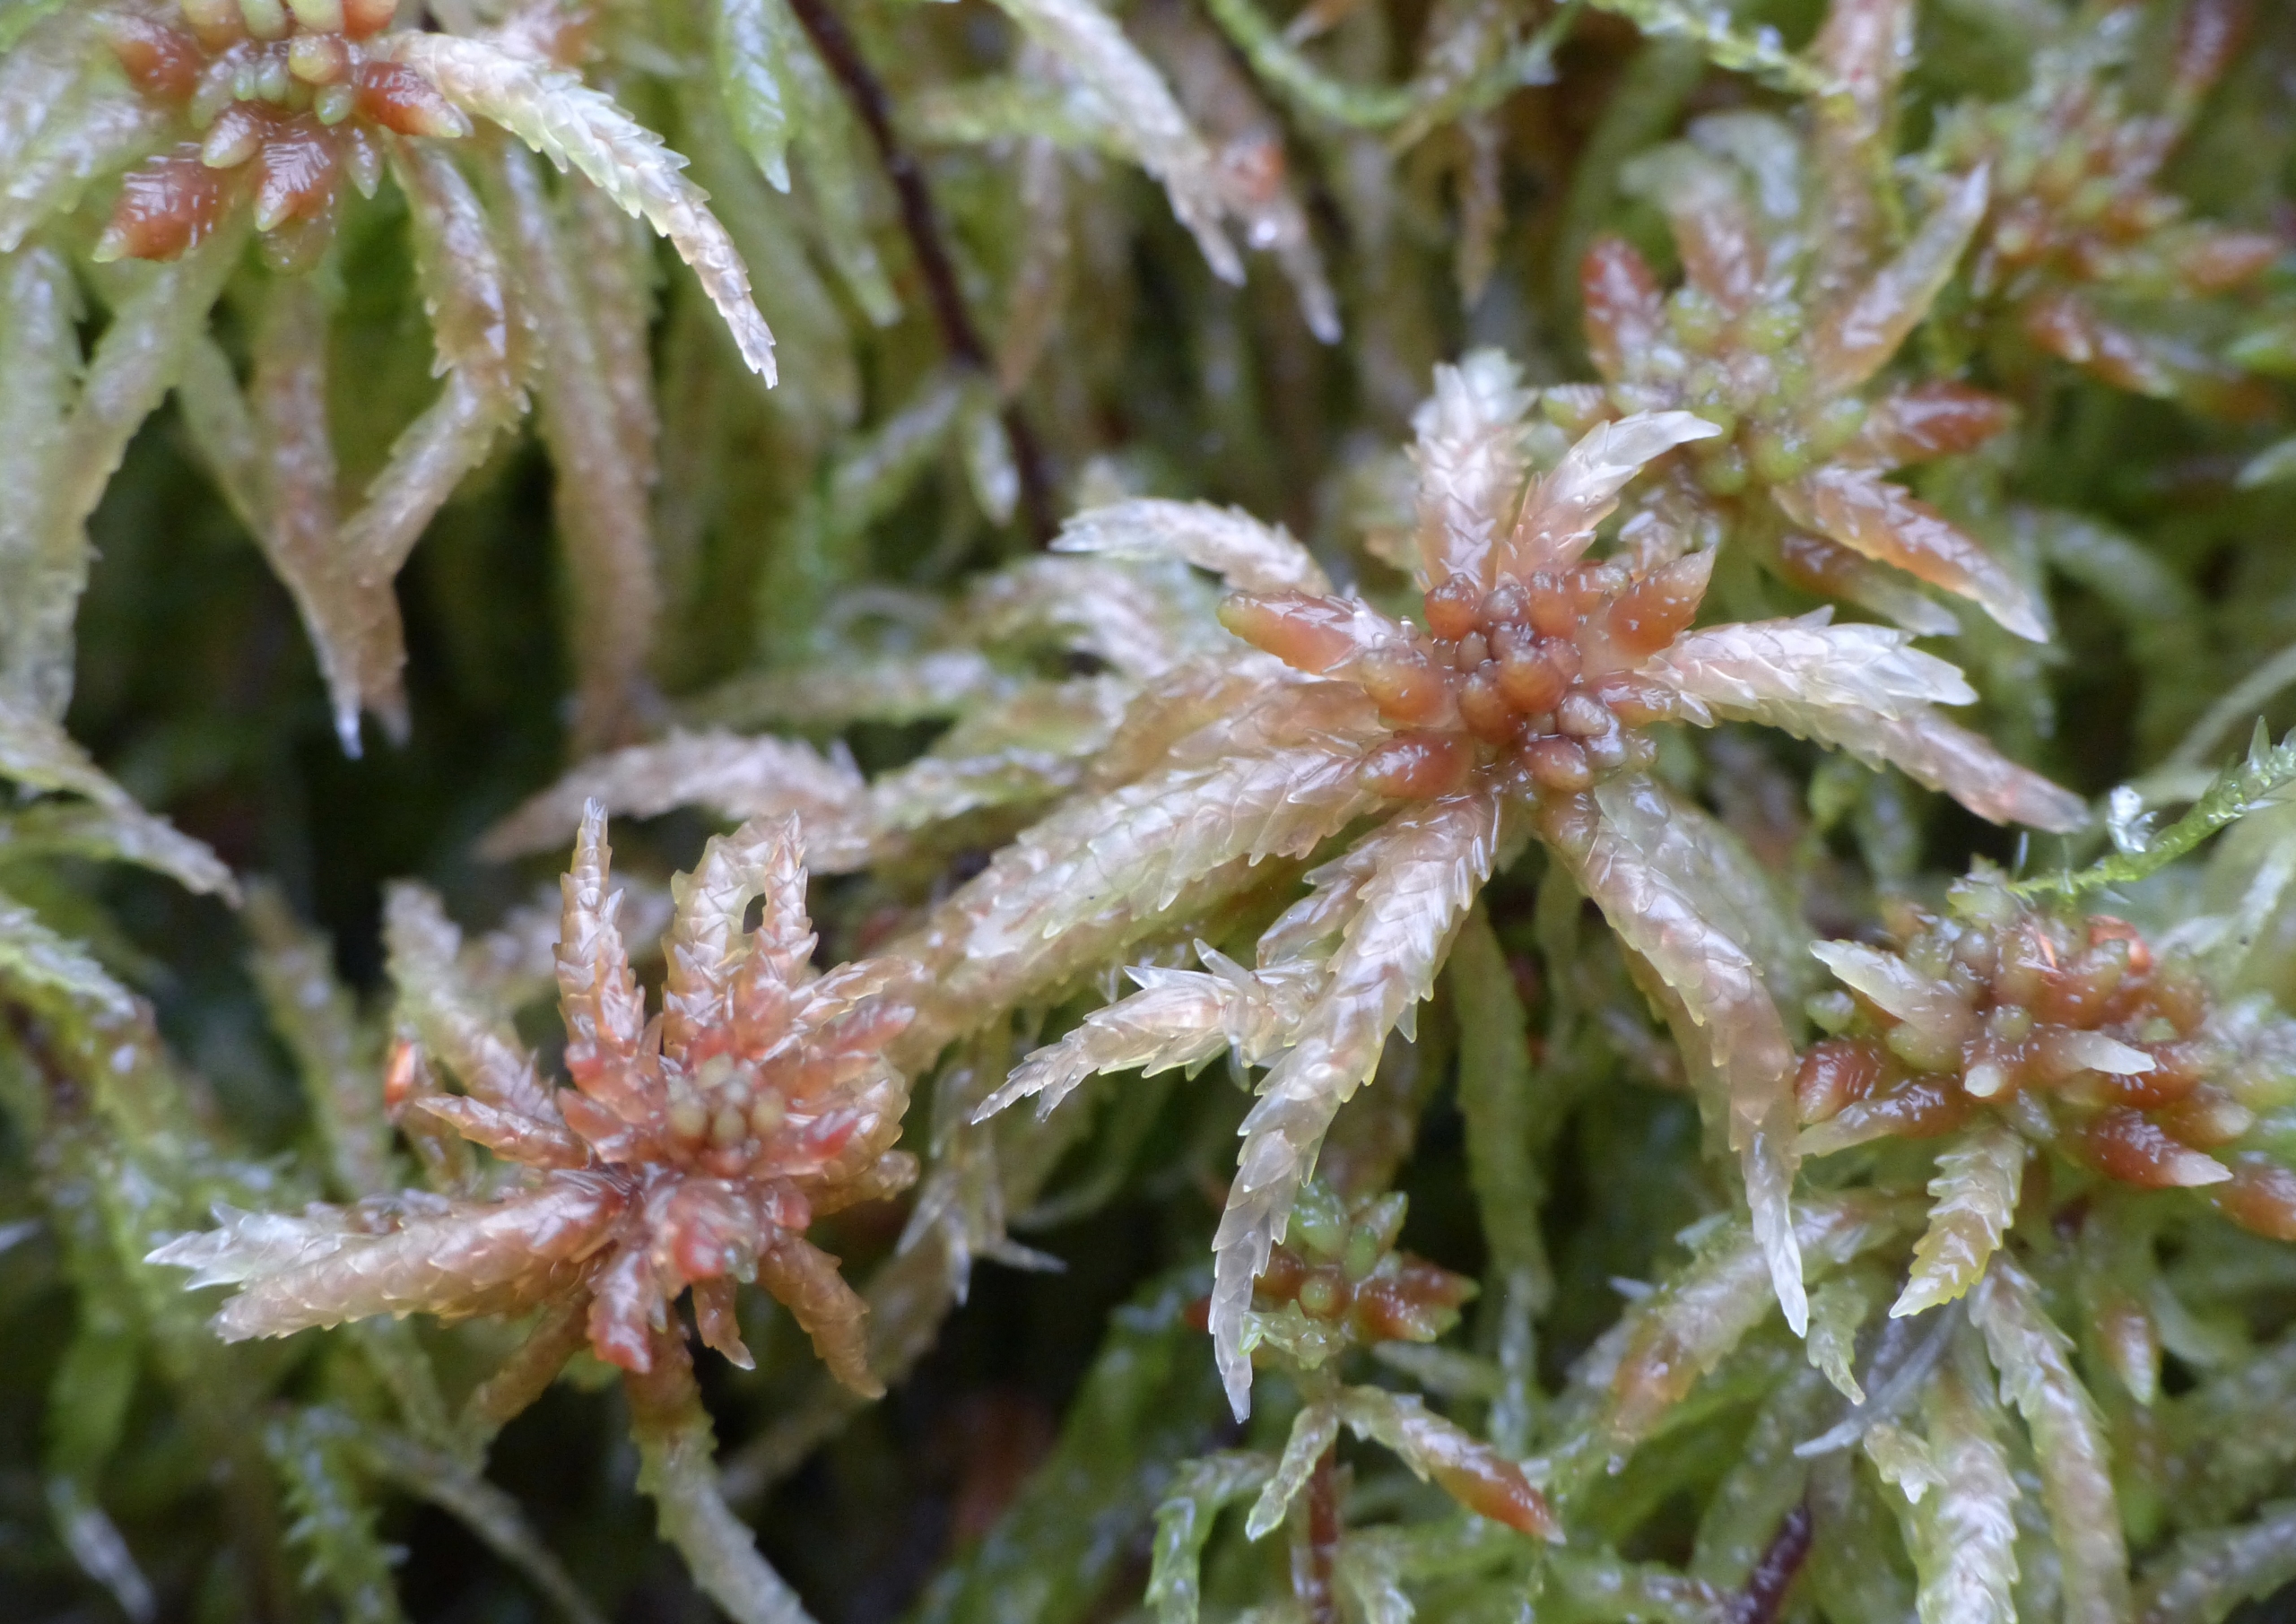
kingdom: Plantae
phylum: Bryophyta
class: Sphagnopsida
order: Sphagnales
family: Sphagnaceae
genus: Sphagnum
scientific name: Sphagnum palustre
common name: Almindelig tørvemos
